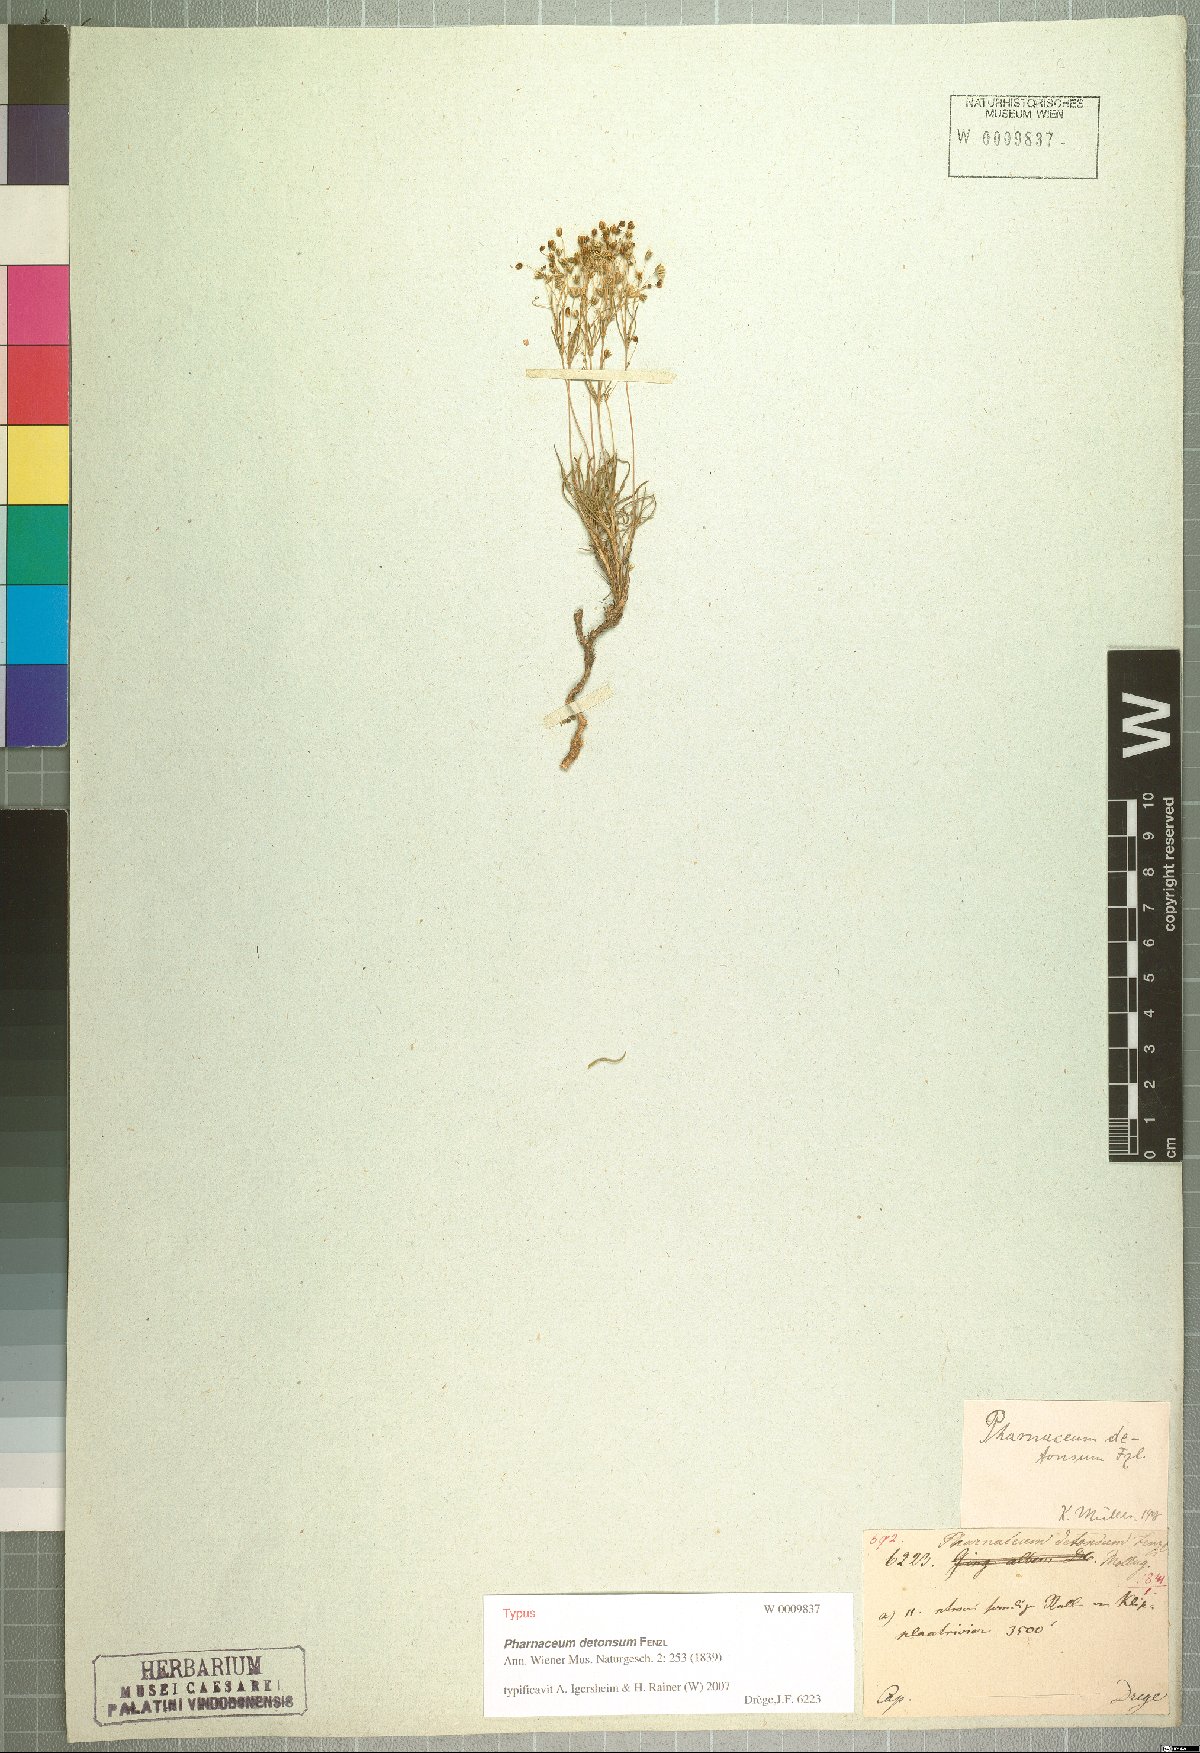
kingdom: Plantae
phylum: Tracheophyta
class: Magnoliopsida
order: Caryophyllales
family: Molluginaceae
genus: Pharnaceum
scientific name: Pharnaceum detonsum
